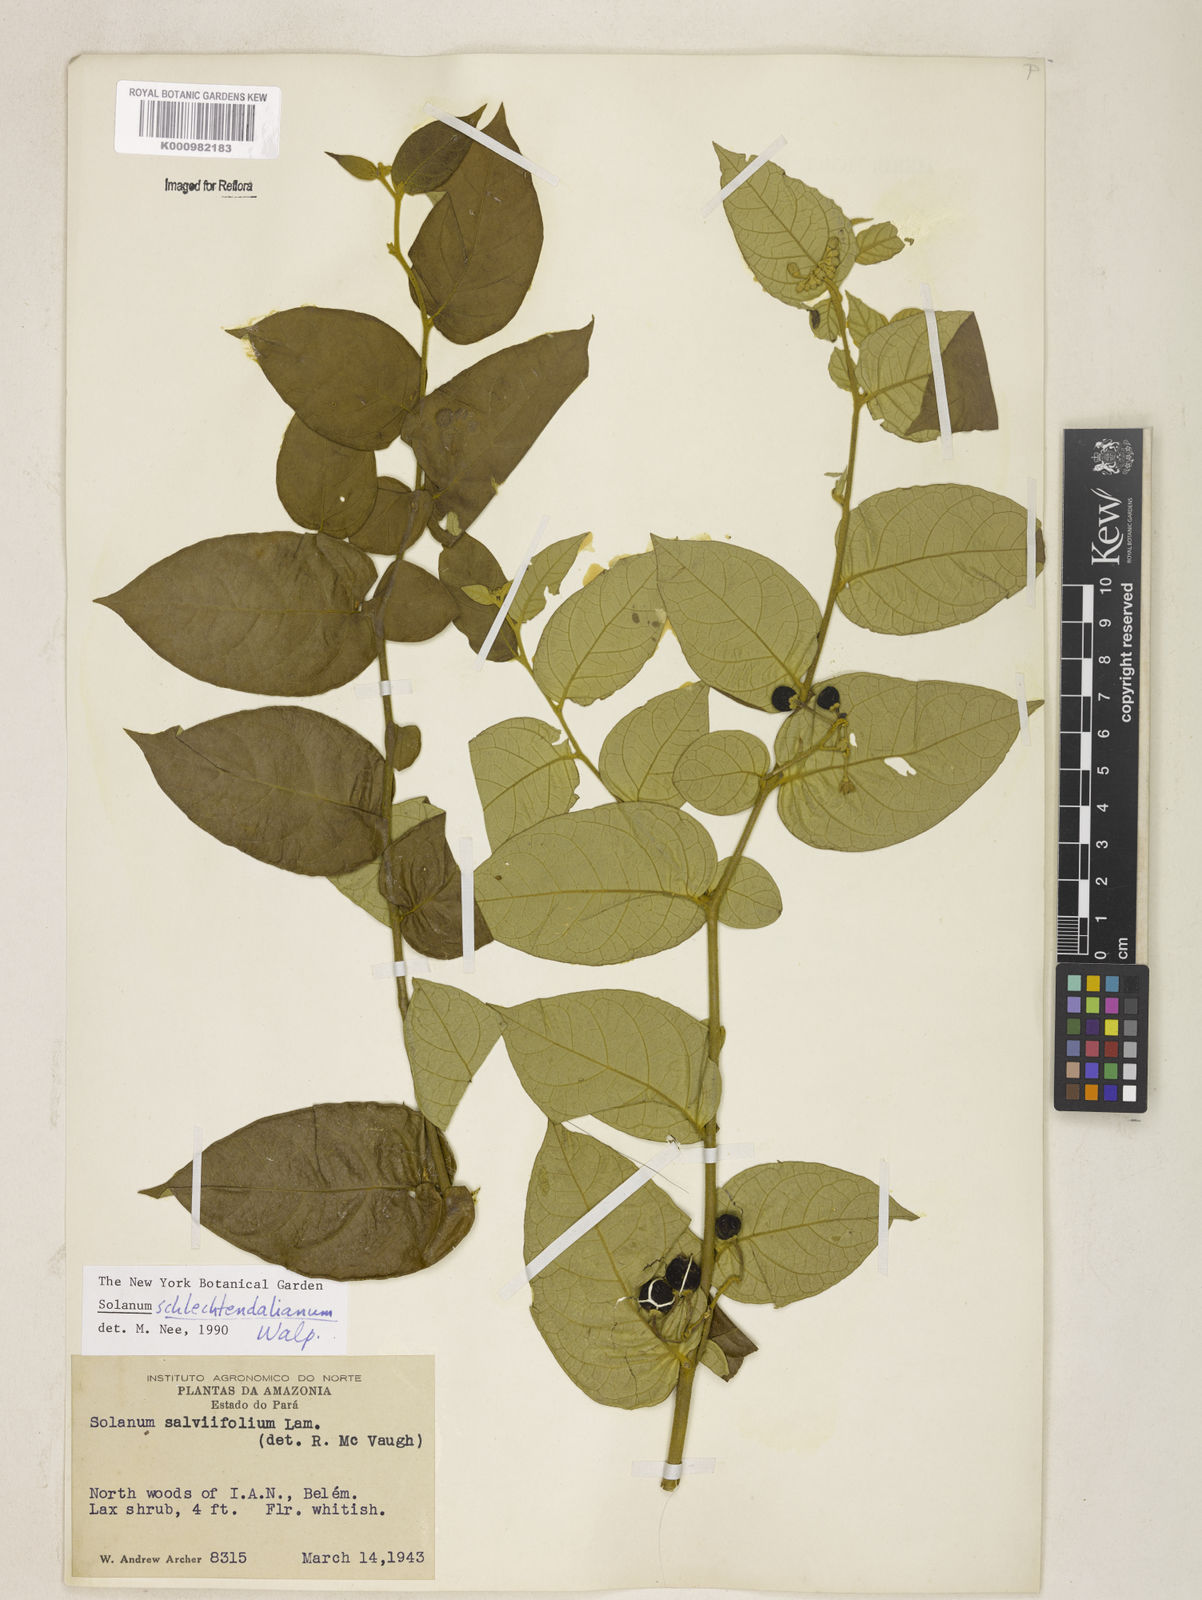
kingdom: Plantae
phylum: Tracheophyta
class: Magnoliopsida
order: Solanales
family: Solanaceae
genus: Solanum
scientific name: Solanum schlechtendalianum
